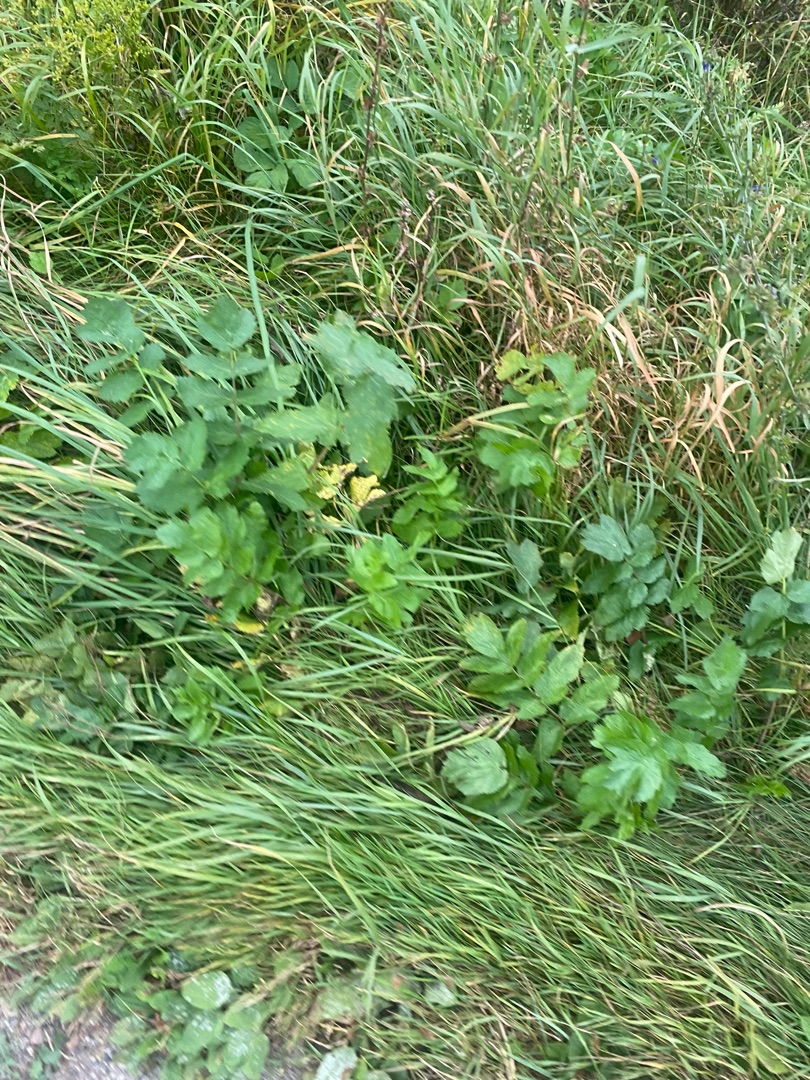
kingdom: Plantae
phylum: Tracheophyta
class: Magnoliopsida
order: Apiales
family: Apiaceae
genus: Pastinaca
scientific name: Pastinaca sativa
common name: Pastinak
